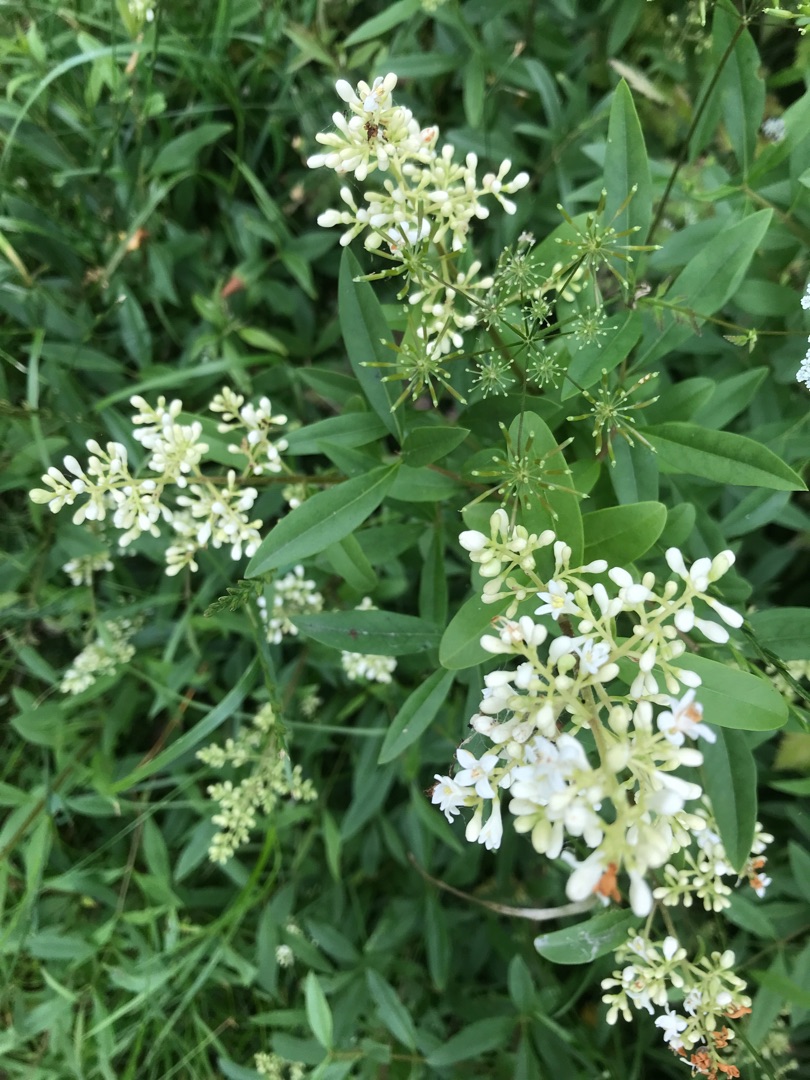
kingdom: Plantae
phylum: Tracheophyta
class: Magnoliopsida
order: Lamiales
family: Oleaceae
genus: Ligustrum
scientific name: Ligustrum vulgare
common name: Liguster
